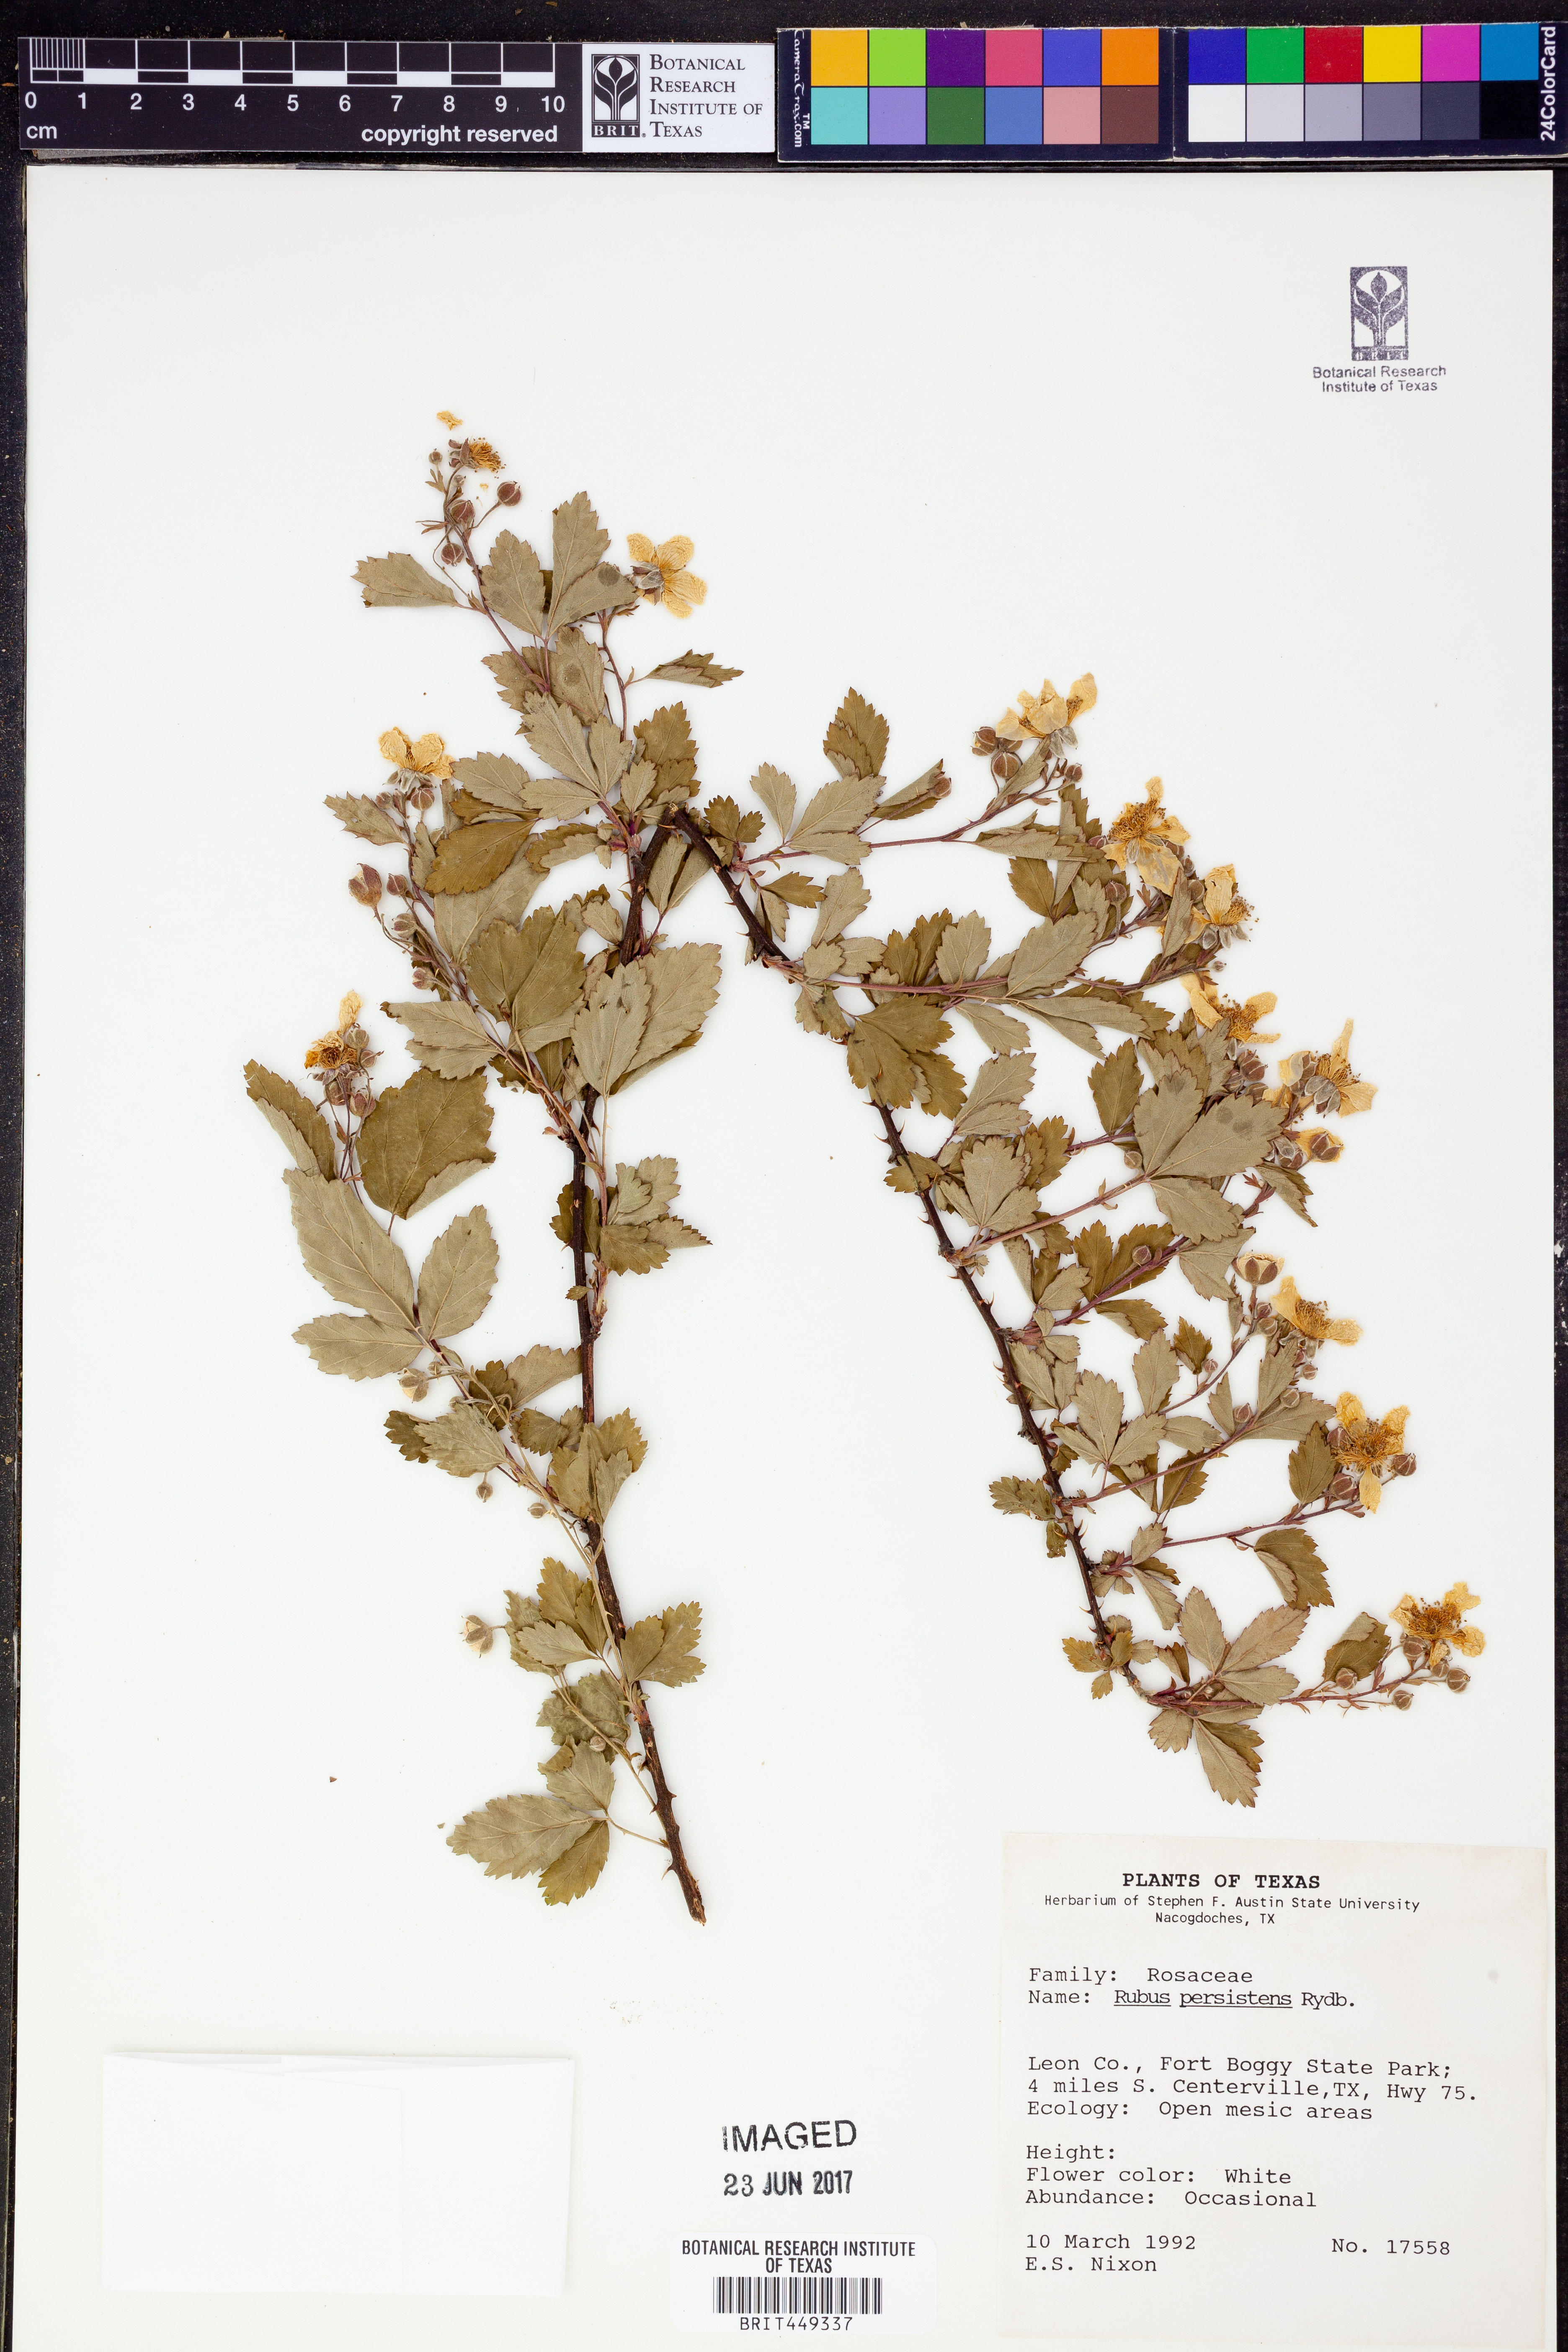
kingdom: Plantae
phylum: Tracheophyta
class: Magnoliopsida
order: Rosales
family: Rosaceae
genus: Rubus
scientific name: Rubus persistens
